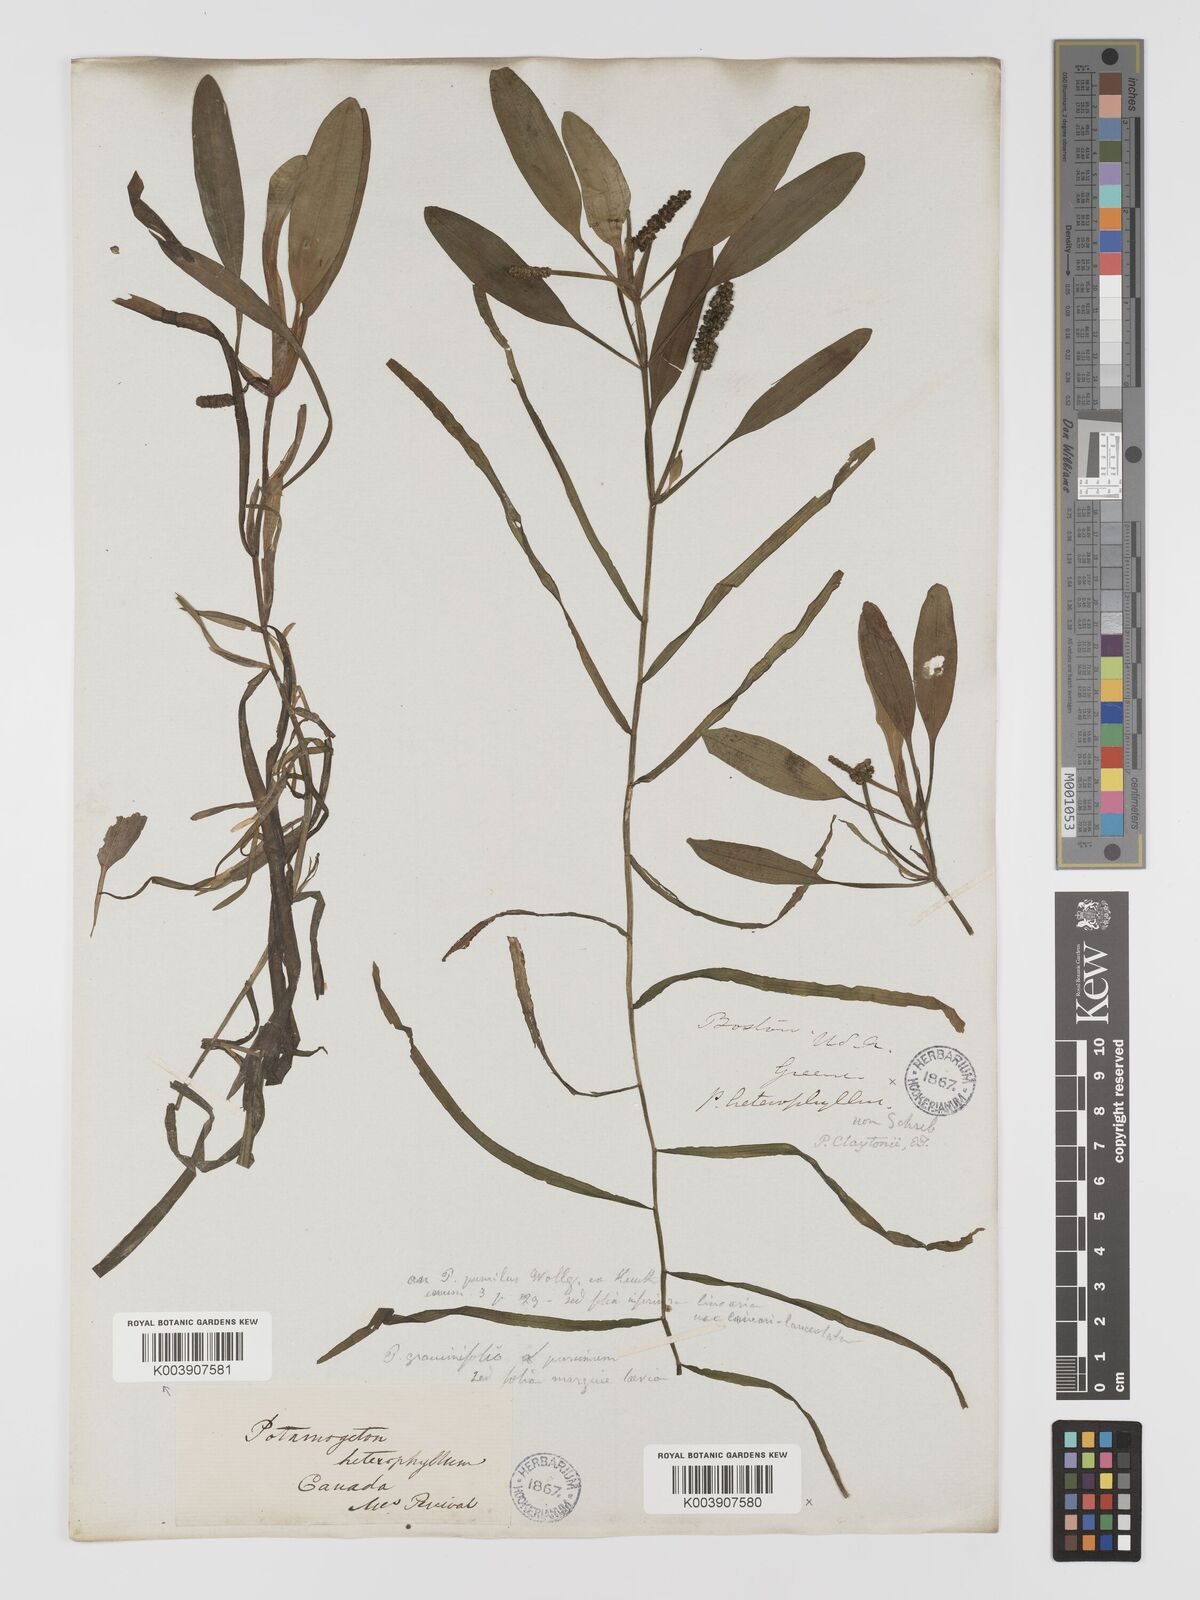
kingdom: Plantae
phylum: Tracheophyta
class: Liliopsida
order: Alismatales
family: Potamogetonaceae
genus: Potamogeton
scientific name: Potamogeton epihydrus
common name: American pondweed
